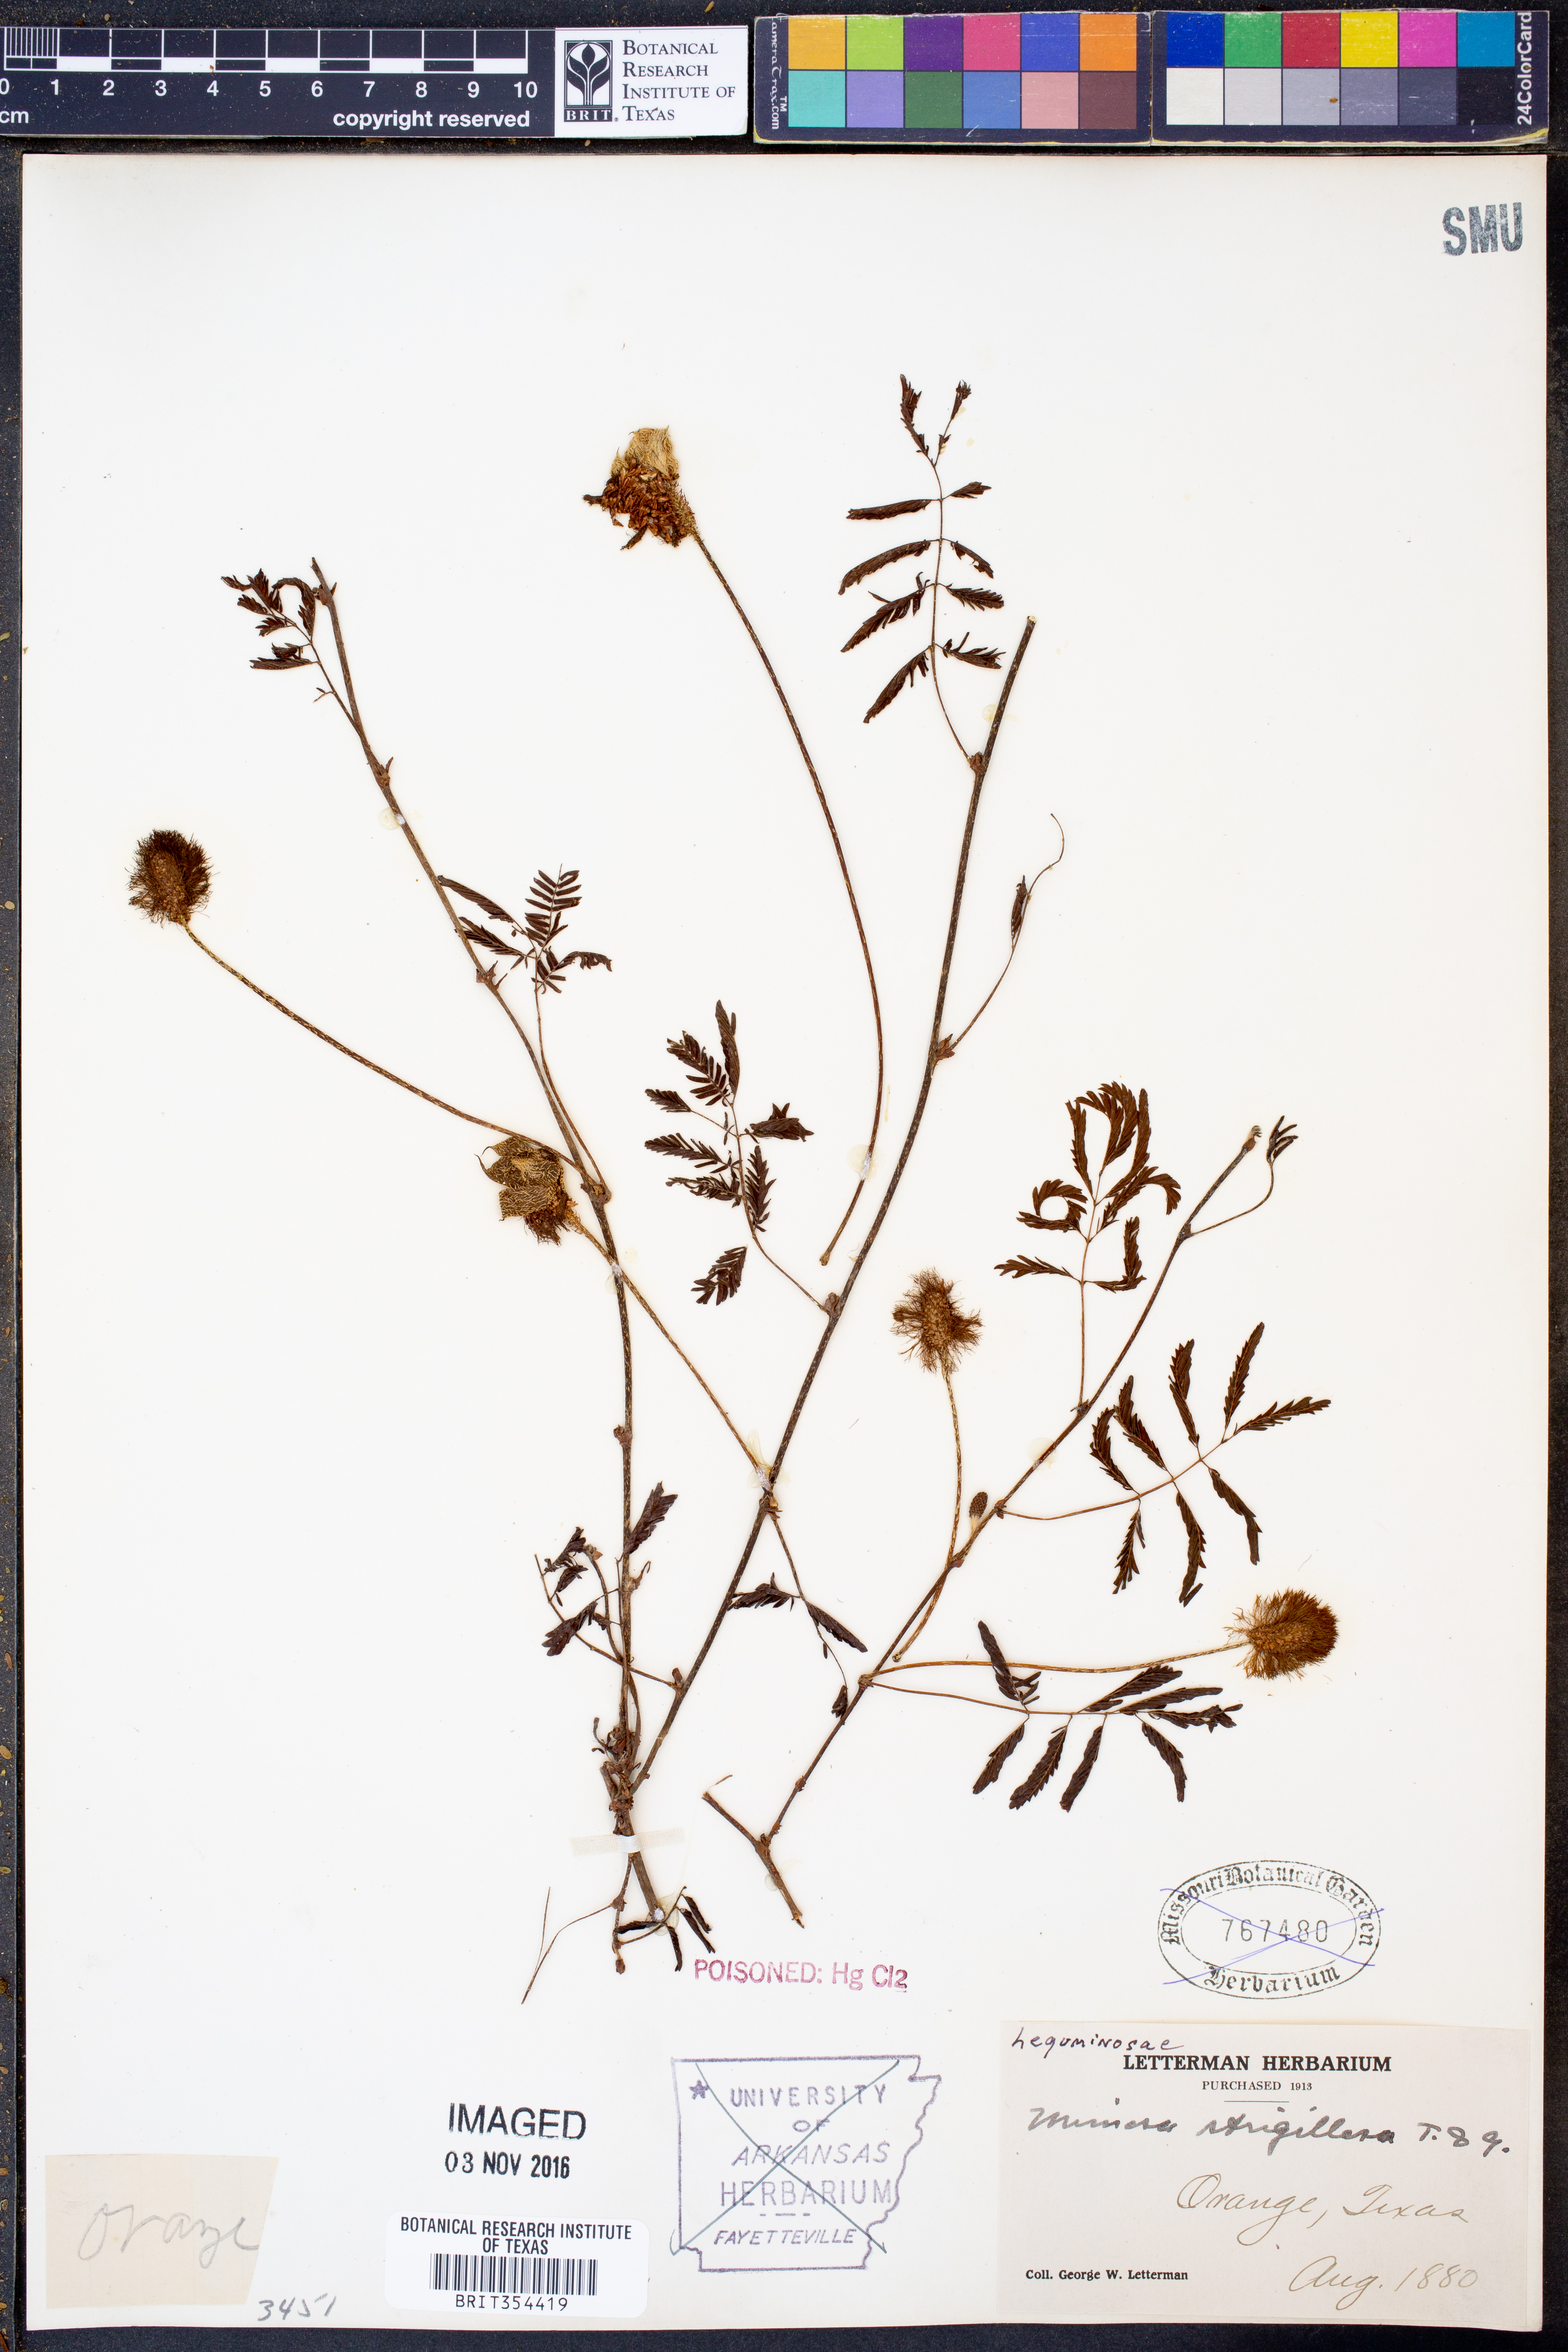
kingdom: Plantae
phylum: Tracheophyta
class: Magnoliopsida
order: Fabales
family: Fabaceae
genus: Mimosa
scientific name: Mimosa strigillosa
